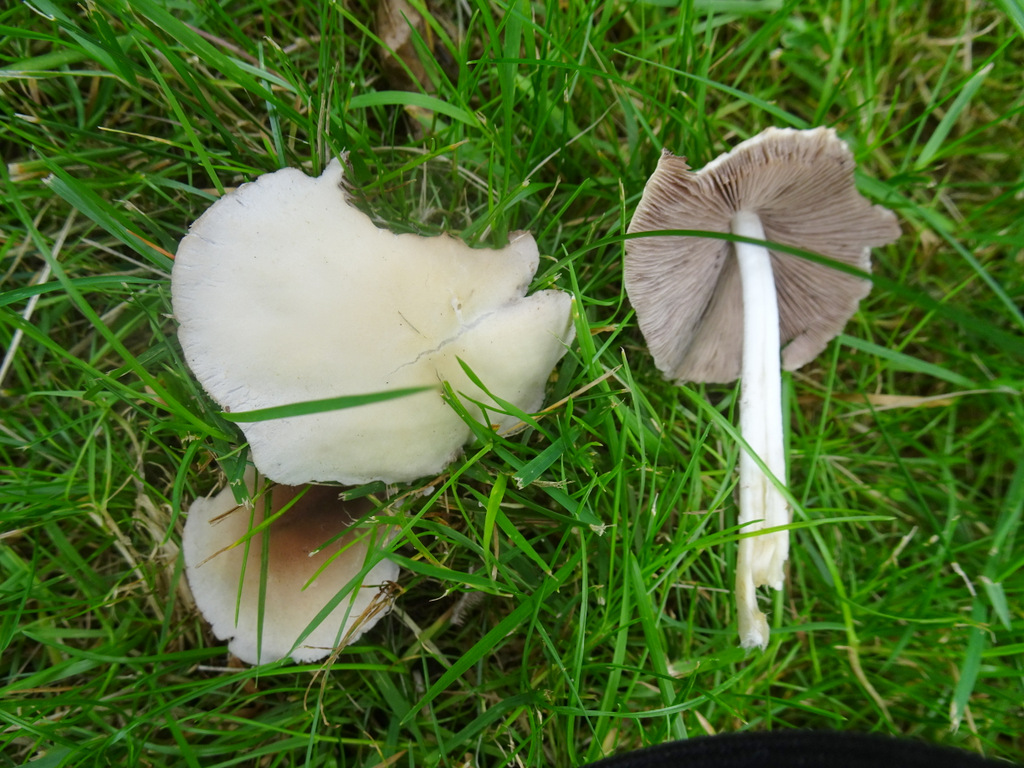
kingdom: Fungi
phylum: Basidiomycota
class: Agaricomycetes
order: Agaricales
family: Psathyrellaceae
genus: Candolleomyces
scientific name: Candolleomyces candolleanus
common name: Candolles mørkhat
